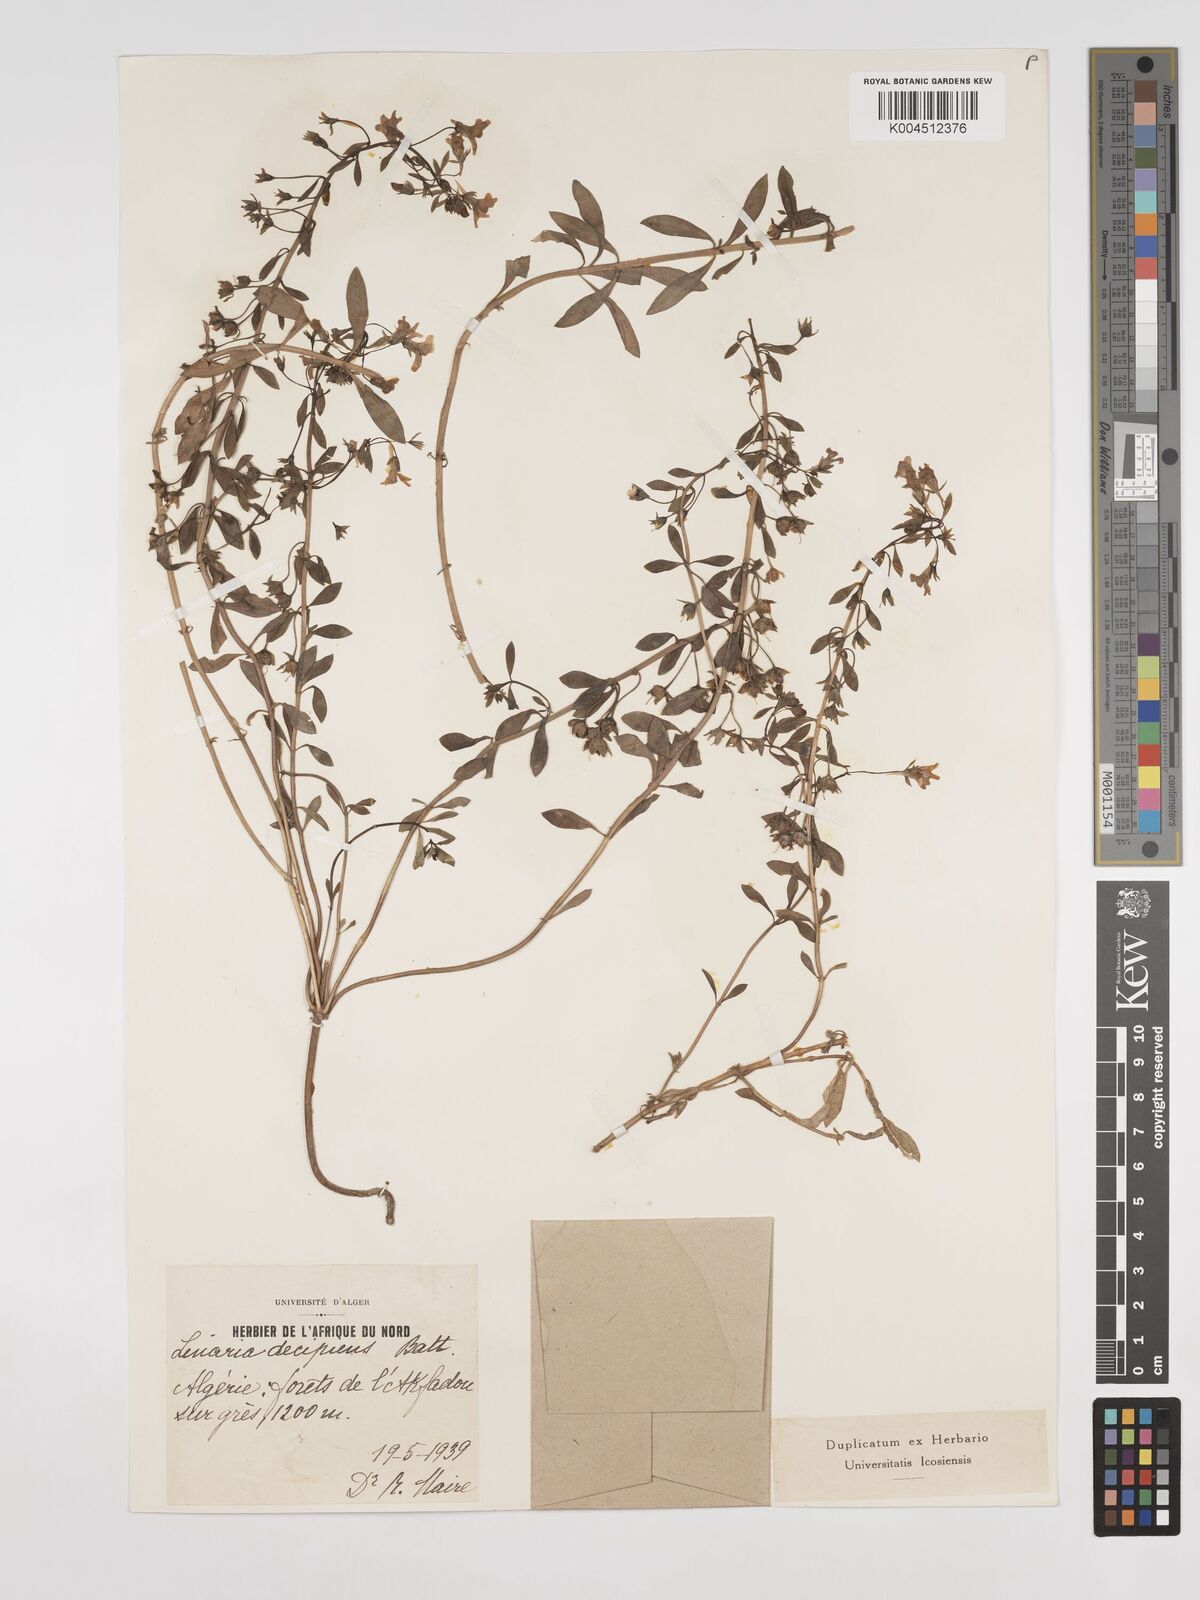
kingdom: Plantae
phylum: Tracheophyta
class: Magnoliopsida
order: Lamiales
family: Plantaginaceae
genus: Linaria
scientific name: Linaria decipiens
